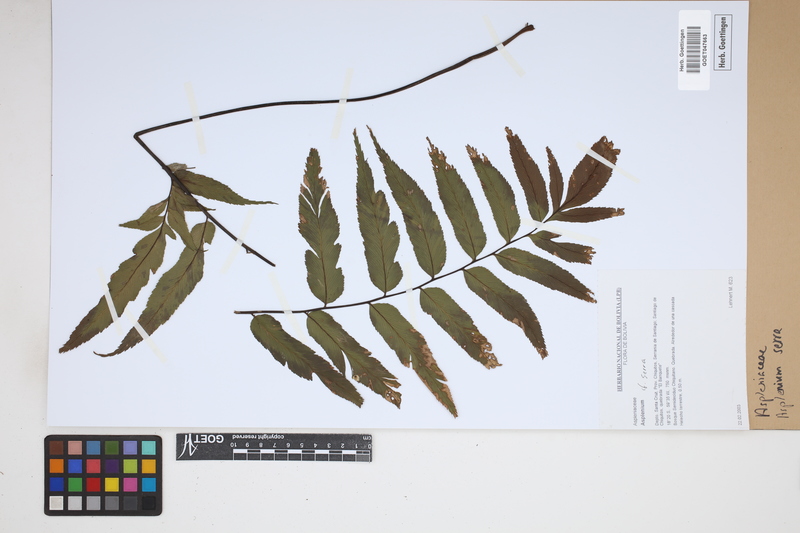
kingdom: Plantae
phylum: Tracheophyta
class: Polypodiopsida
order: Polypodiales
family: Aspleniaceae
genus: Asplenium
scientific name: Asplenium serra
